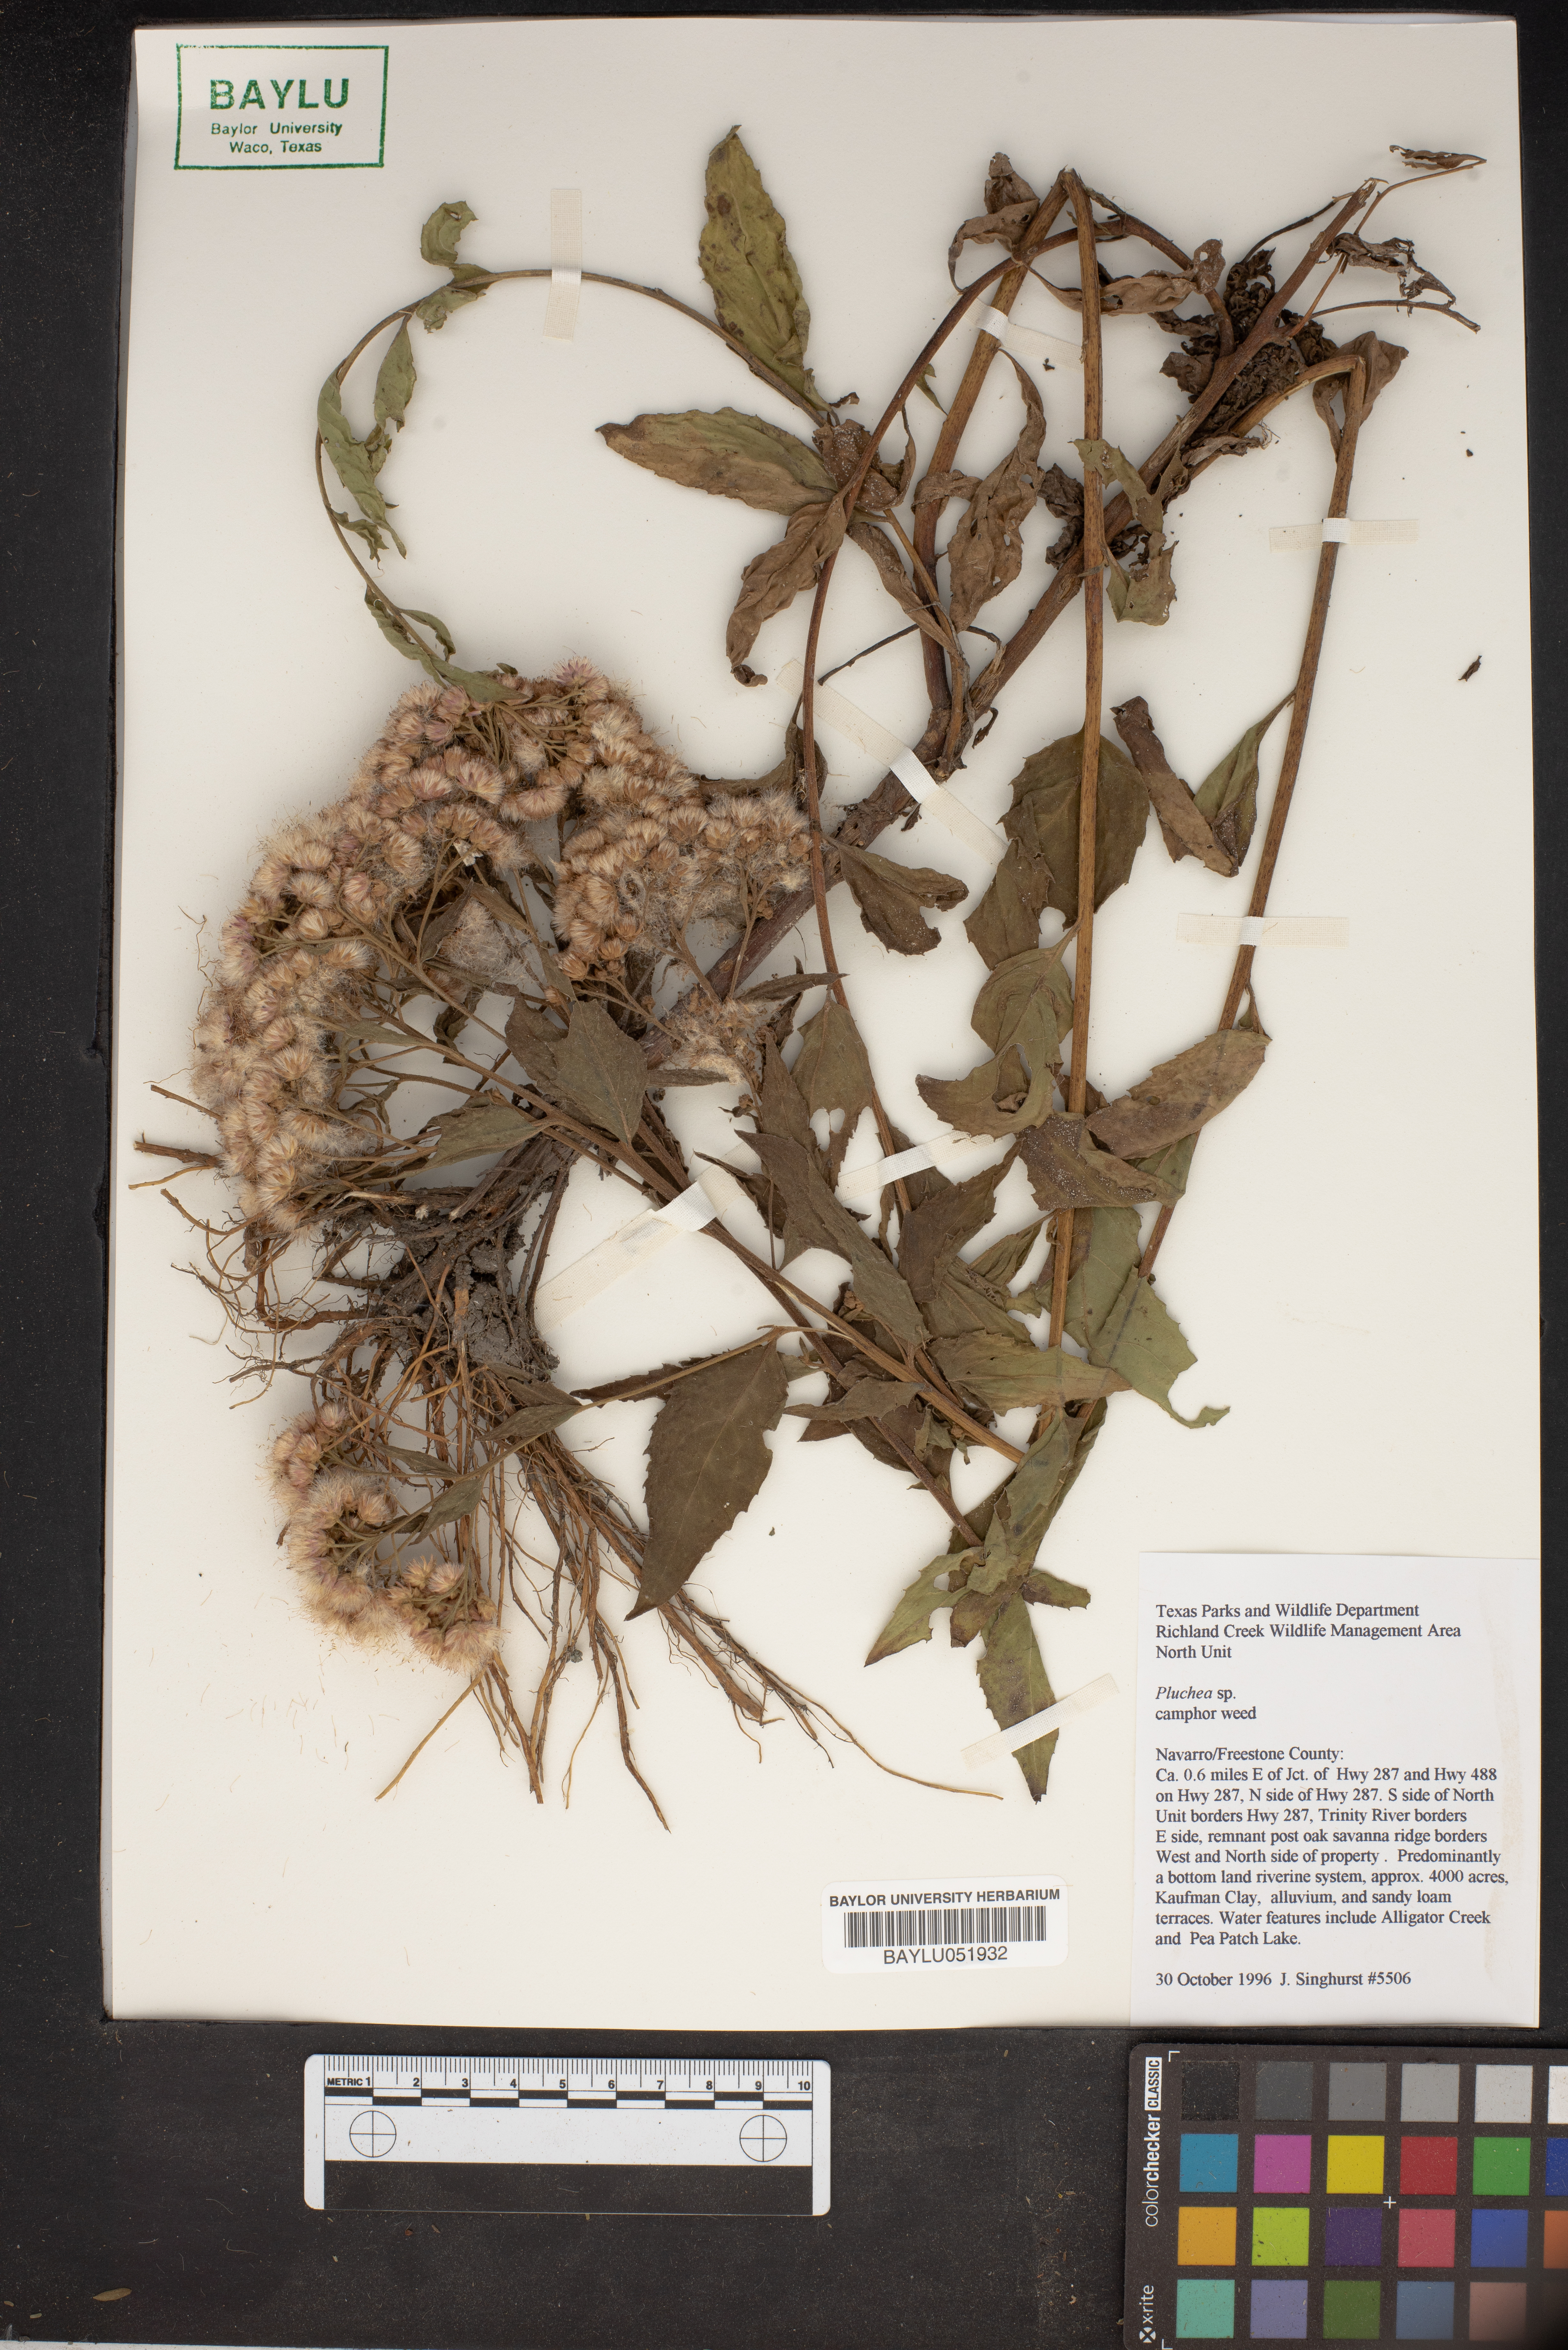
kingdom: Plantae
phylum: Tracheophyta
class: Magnoliopsida
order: Asterales
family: Asteraceae
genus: Pluchea
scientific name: Pluchea
